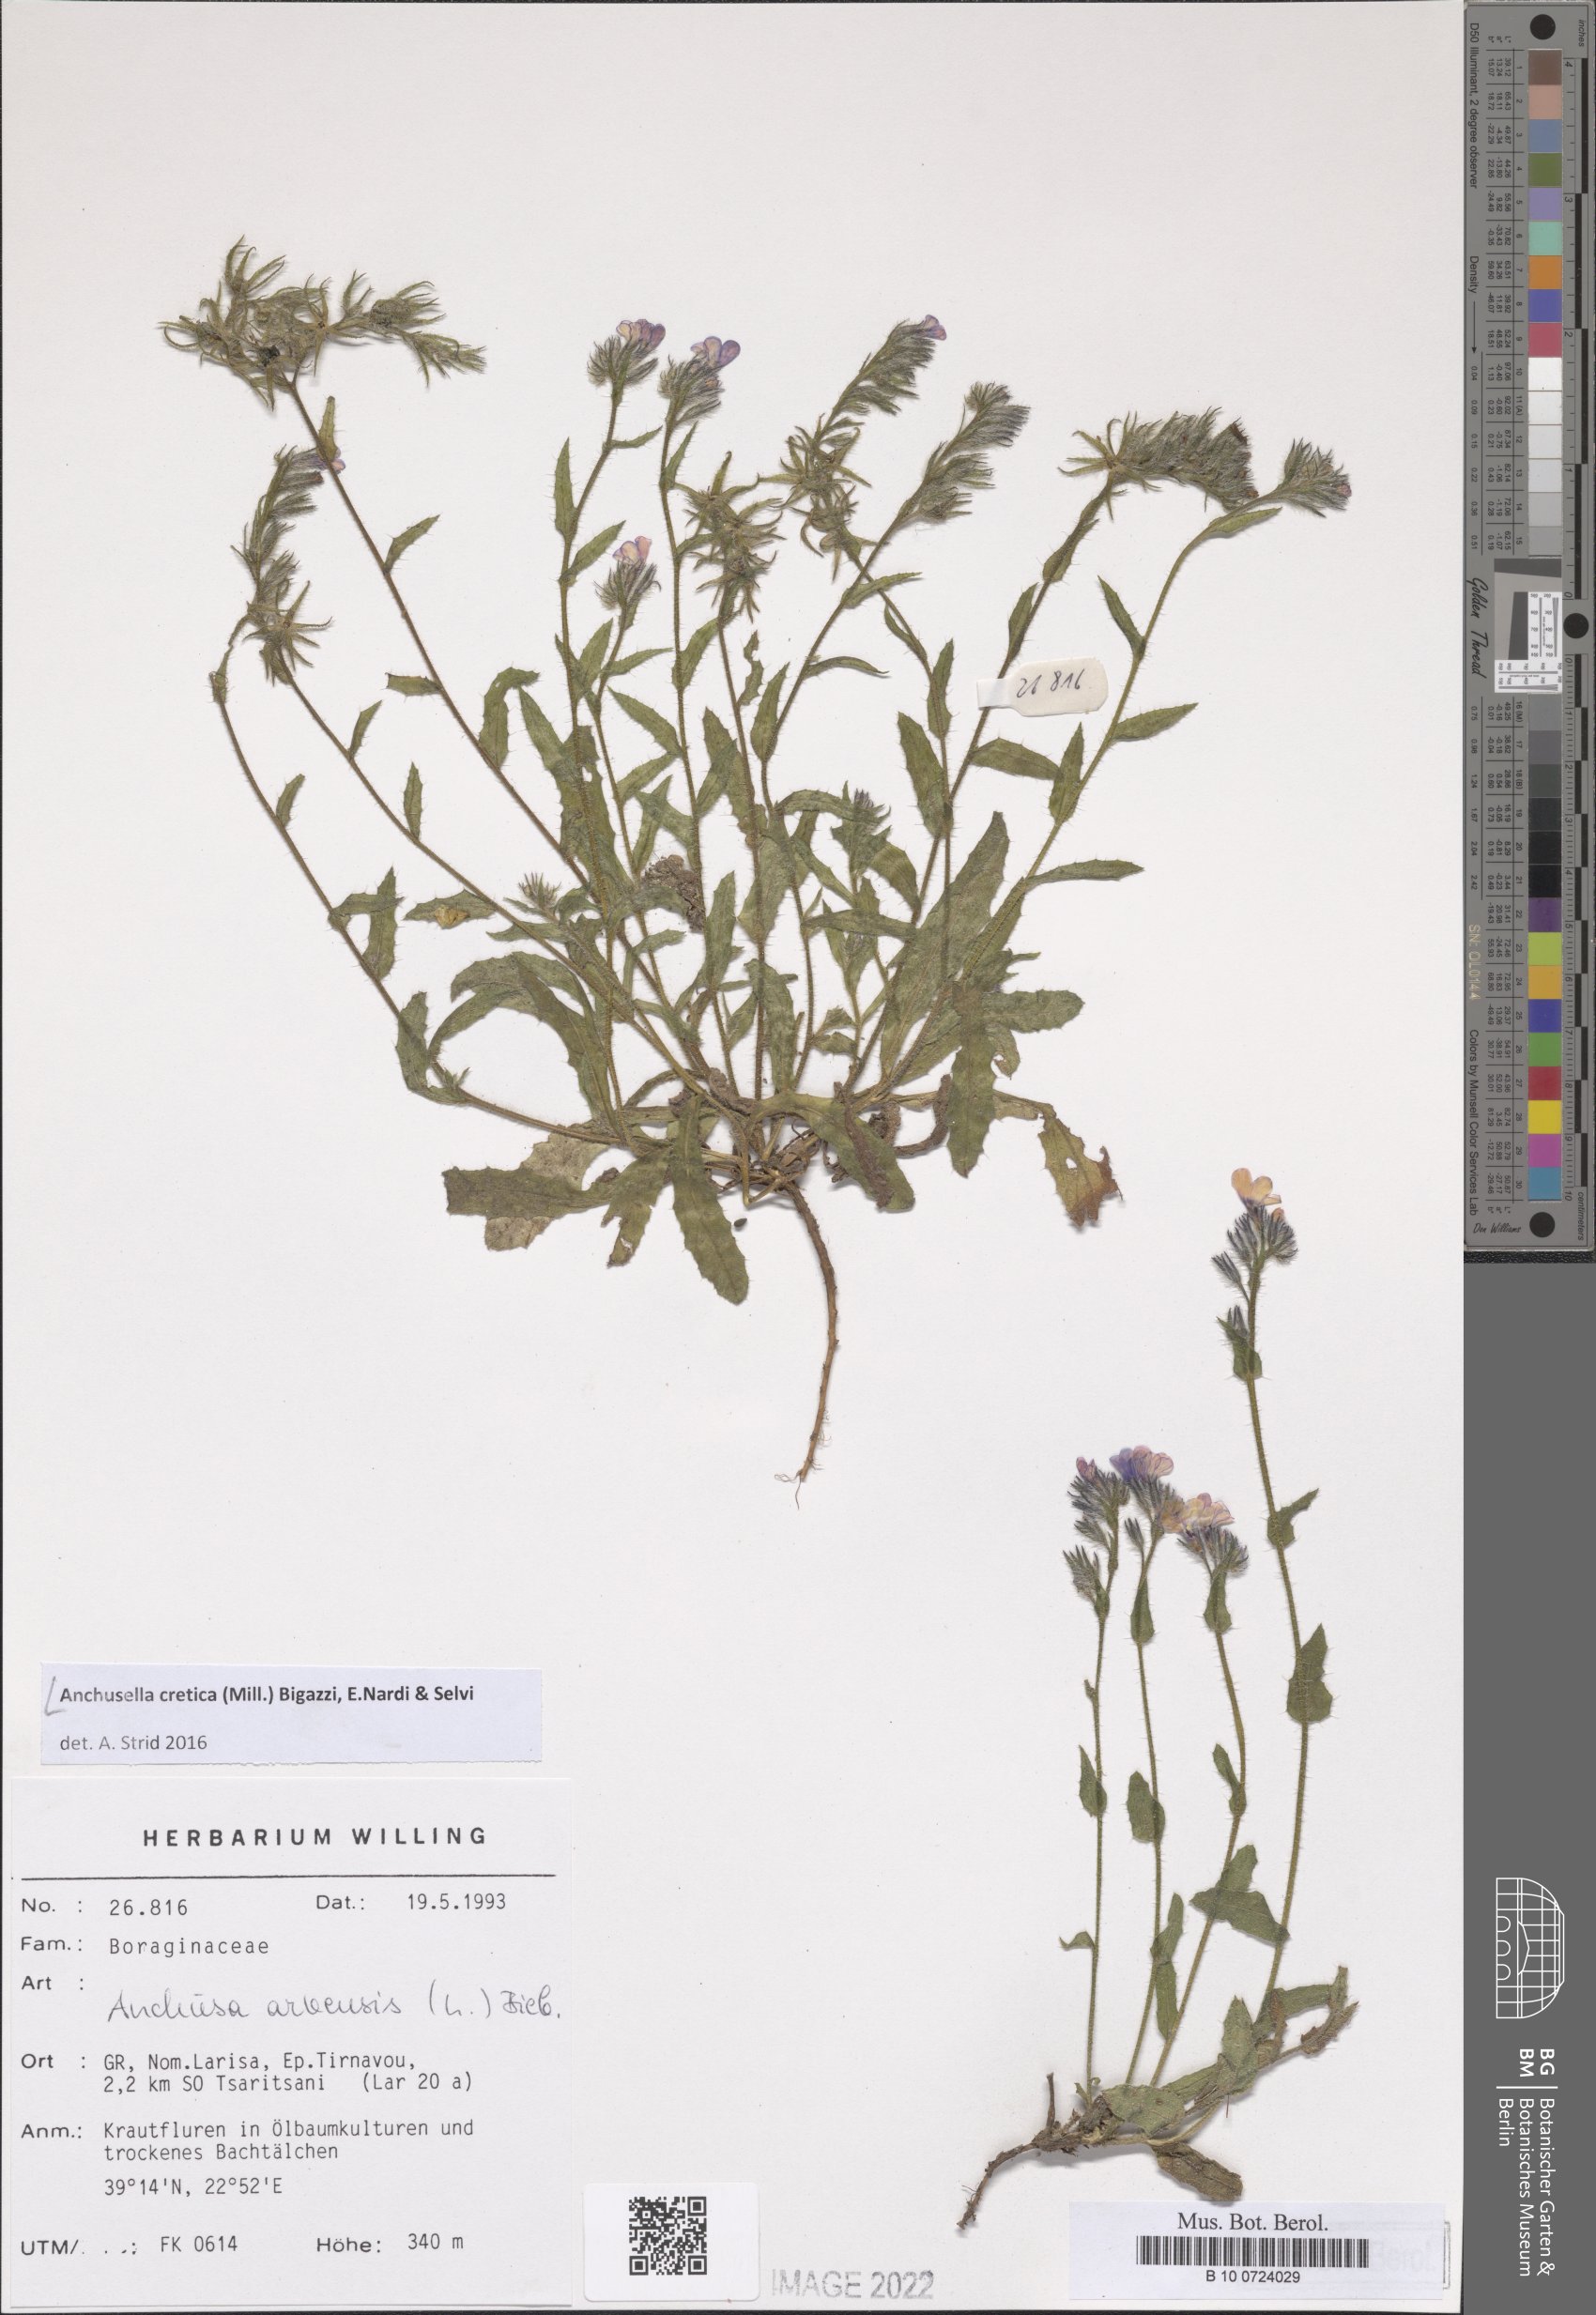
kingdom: Plantae
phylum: Tracheophyta
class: Magnoliopsida
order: Boraginales
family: Boraginaceae
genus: Anchusella
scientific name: Anchusella cretica
